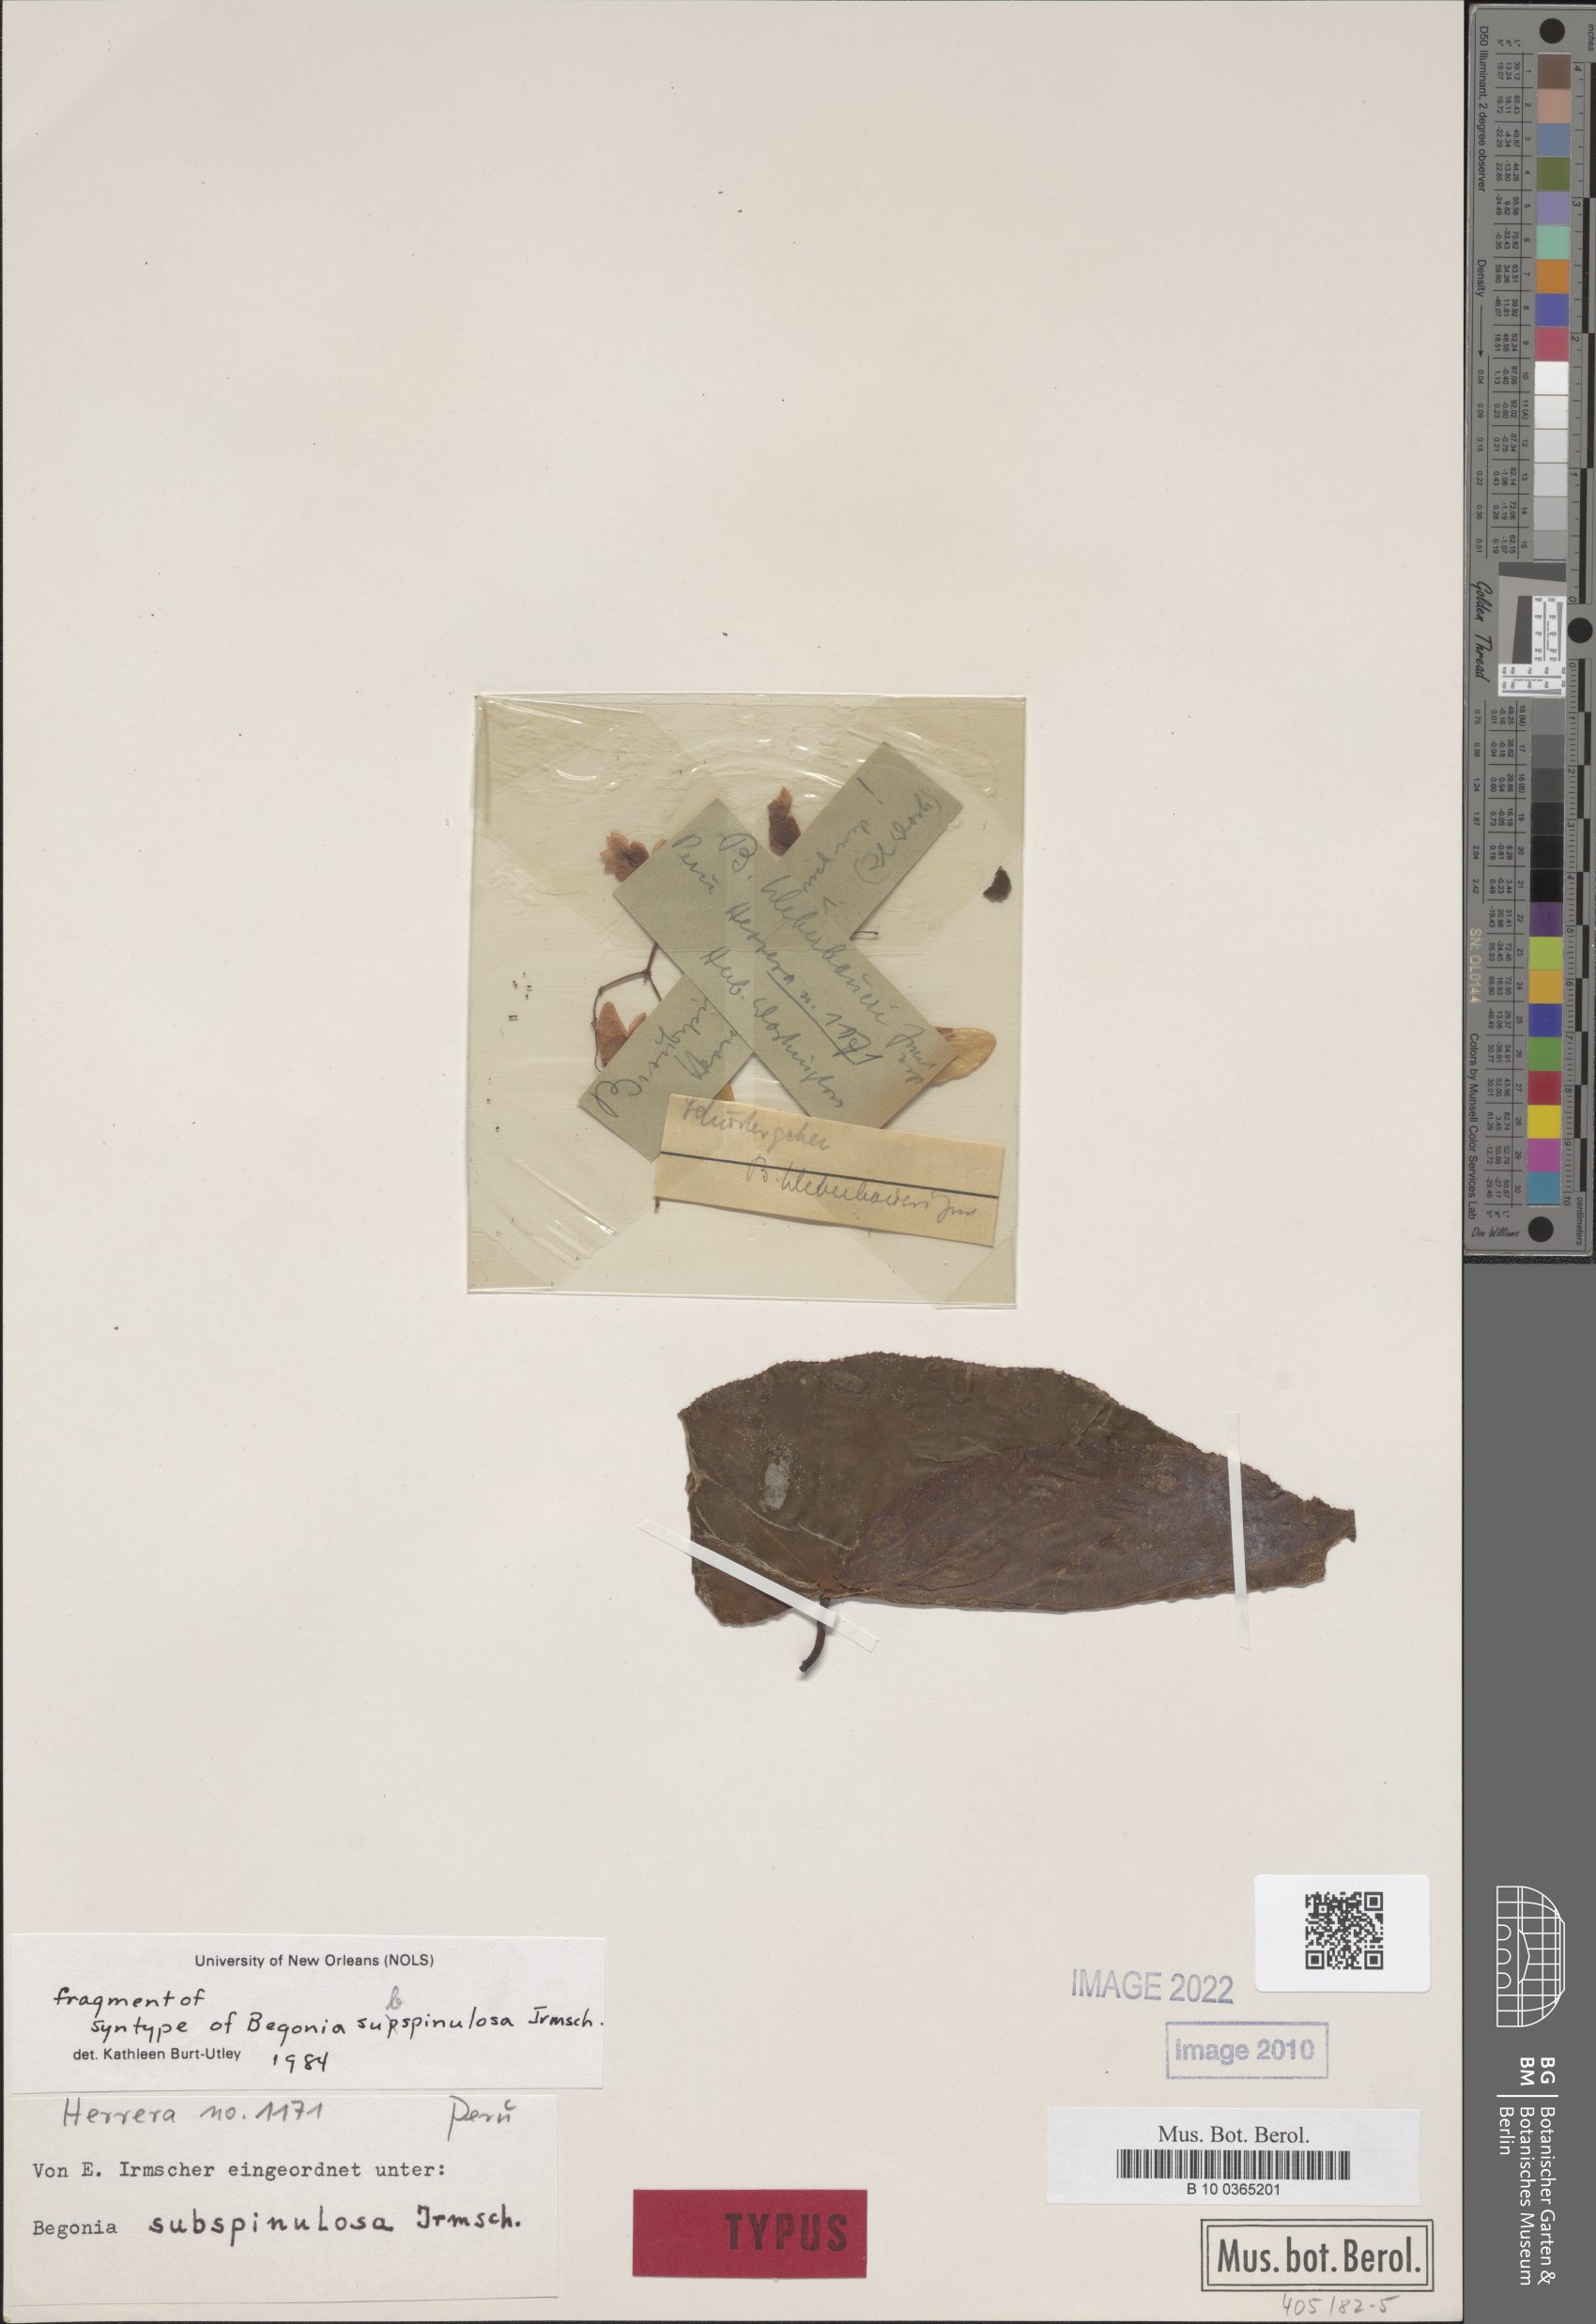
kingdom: Plantae
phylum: Tracheophyta
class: Magnoliopsida
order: Cucurbitales
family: Begoniaceae
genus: Begonia
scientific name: Begonia subspinulosa
